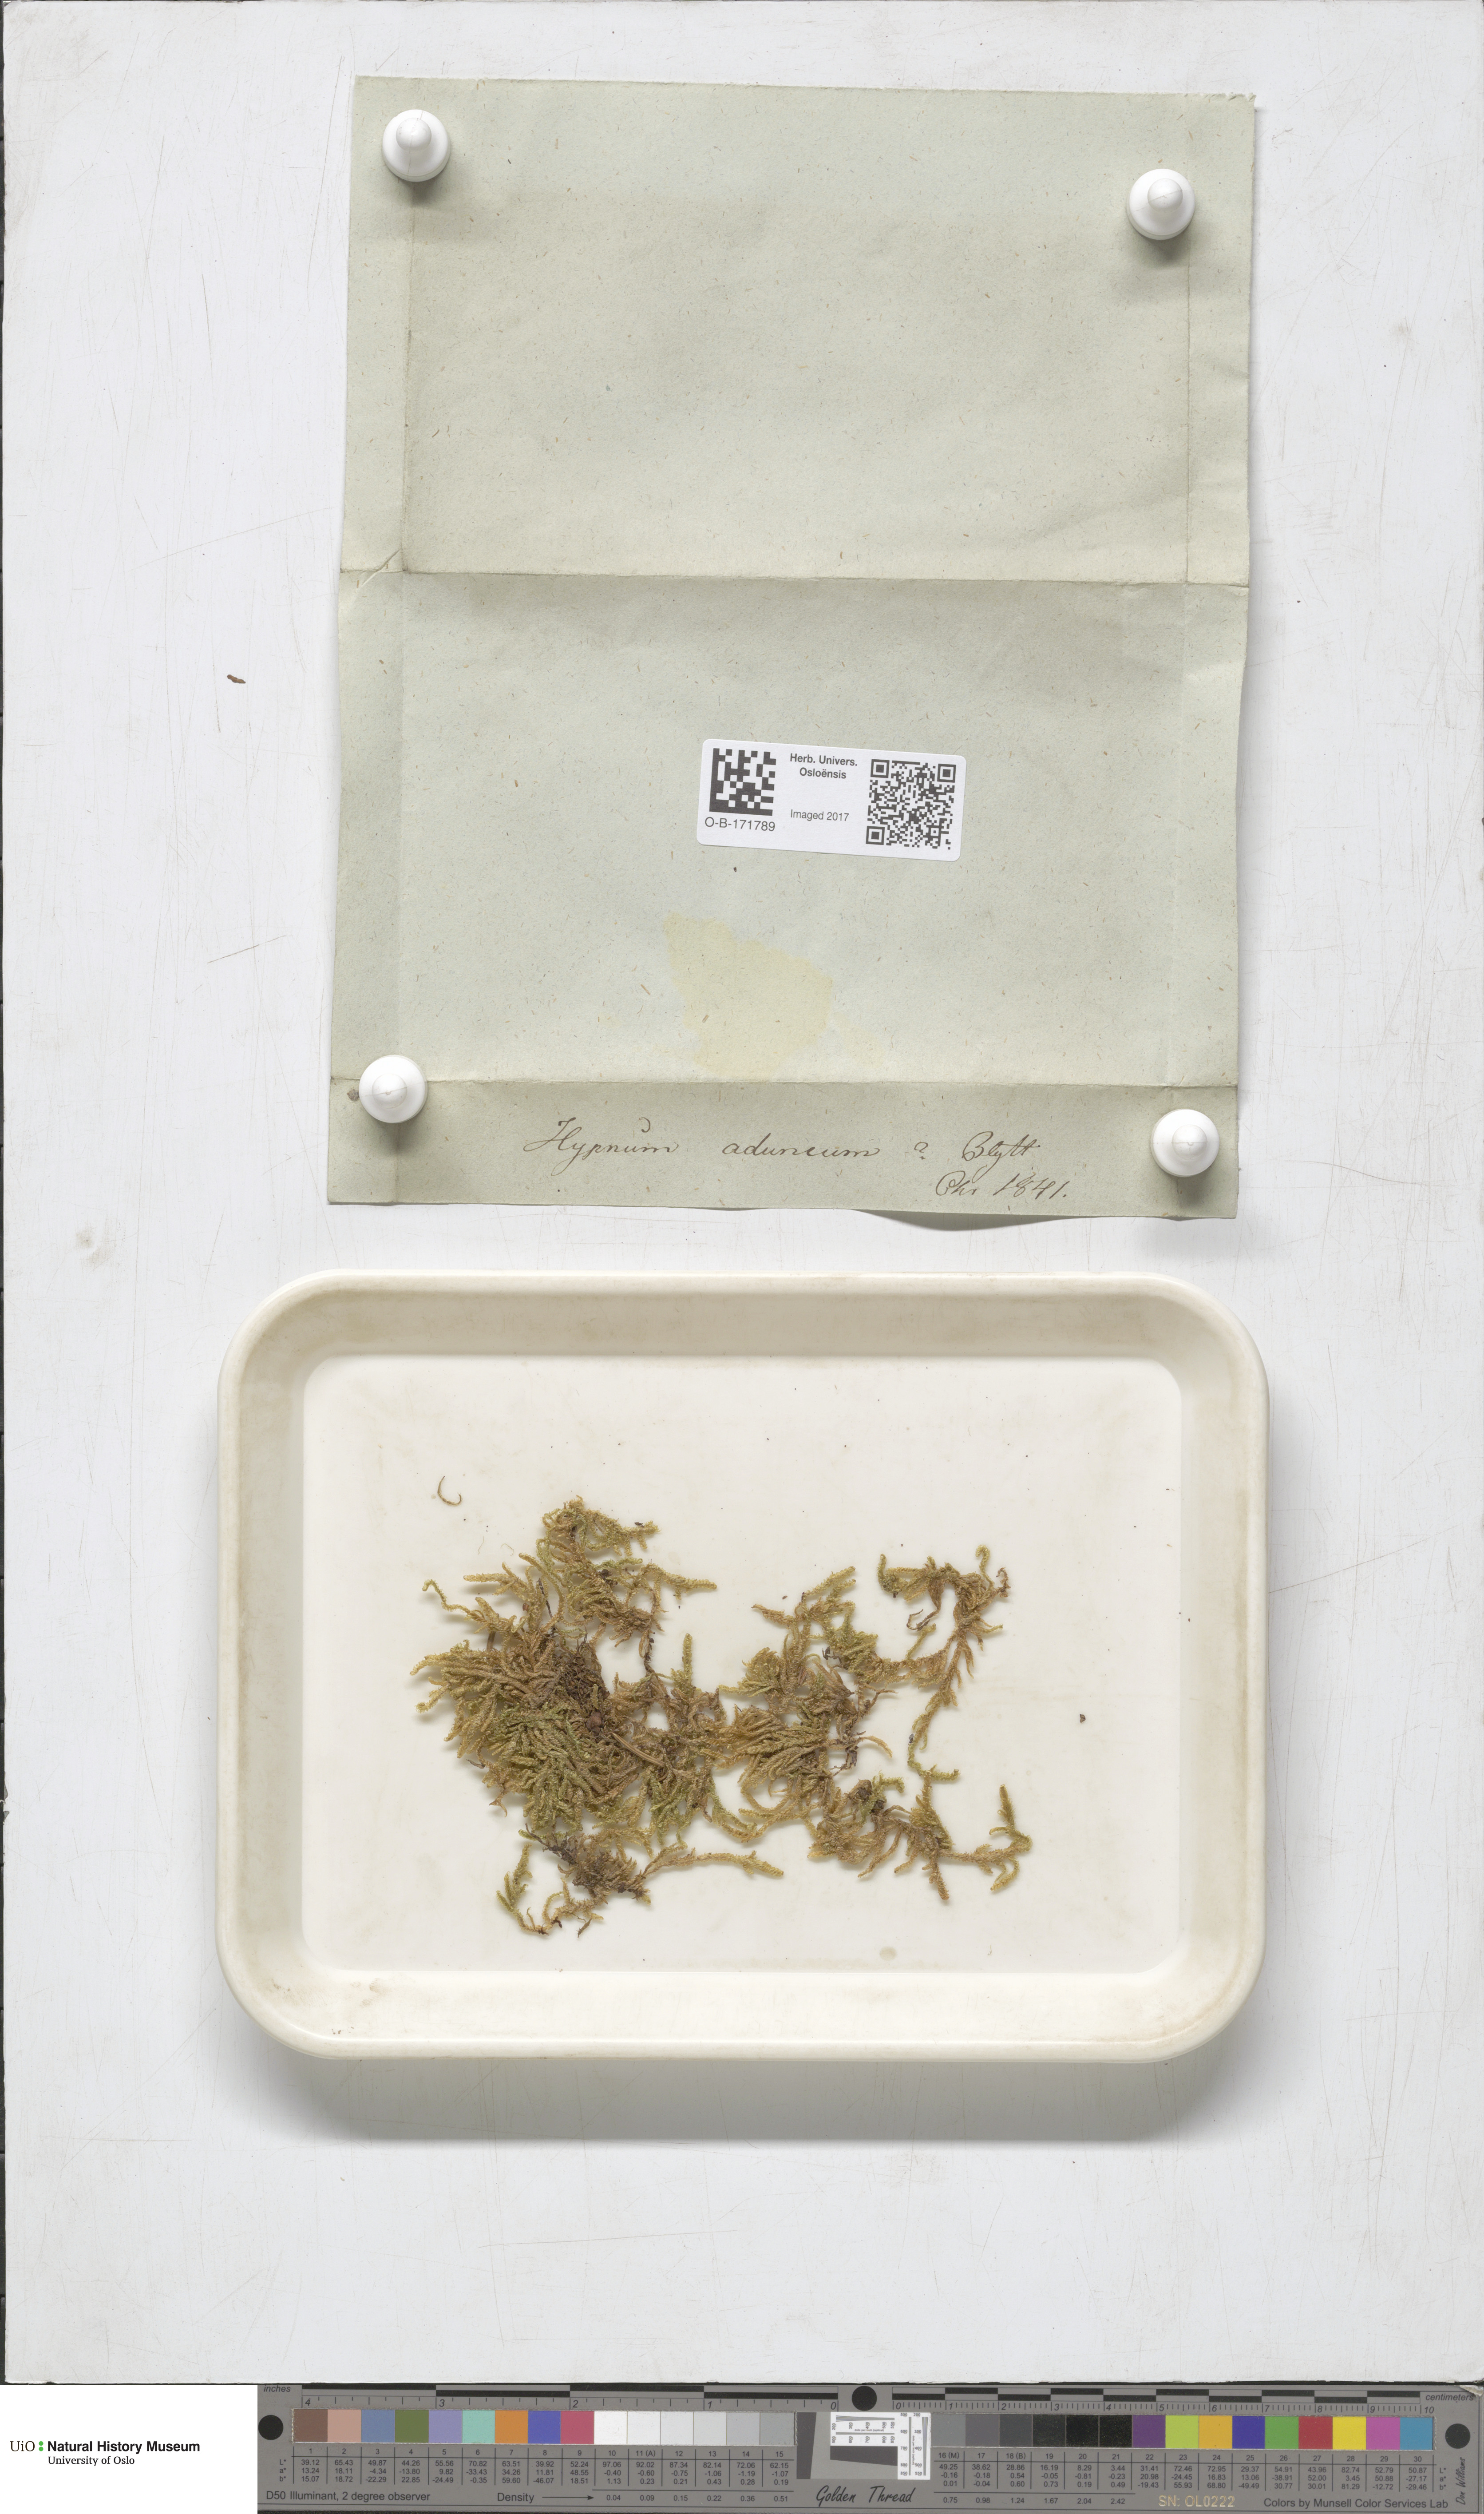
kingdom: Plantae
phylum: Bryophyta
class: Bryopsida
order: Hypnales
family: Amblystegiaceae
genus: Drepanocladus
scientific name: Drepanocladus aduncus
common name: Knieff's hook moss
